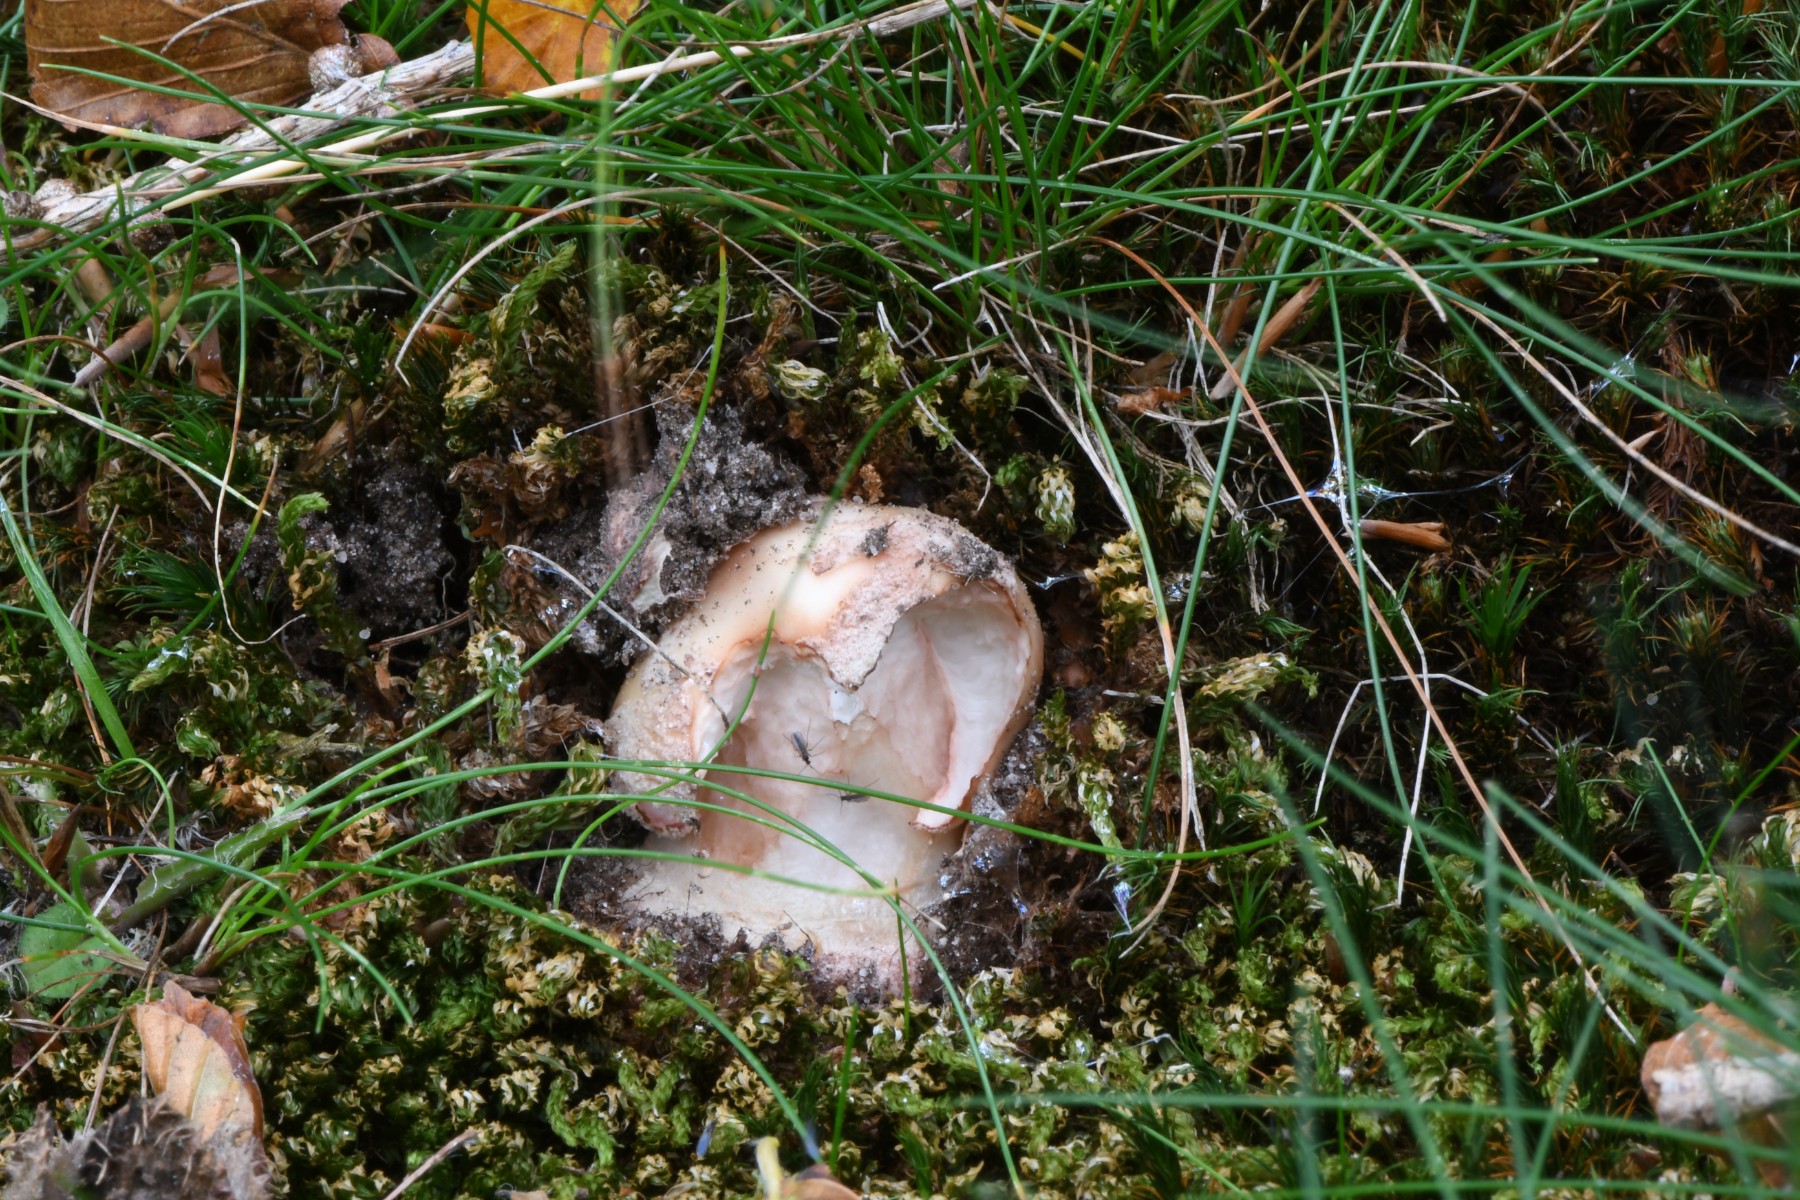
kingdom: Fungi
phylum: Basidiomycota
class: Agaricomycetes
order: Agaricales
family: Amanitaceae
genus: Amanita
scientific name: Amanita rubescens
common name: rødmende fluesvamp
